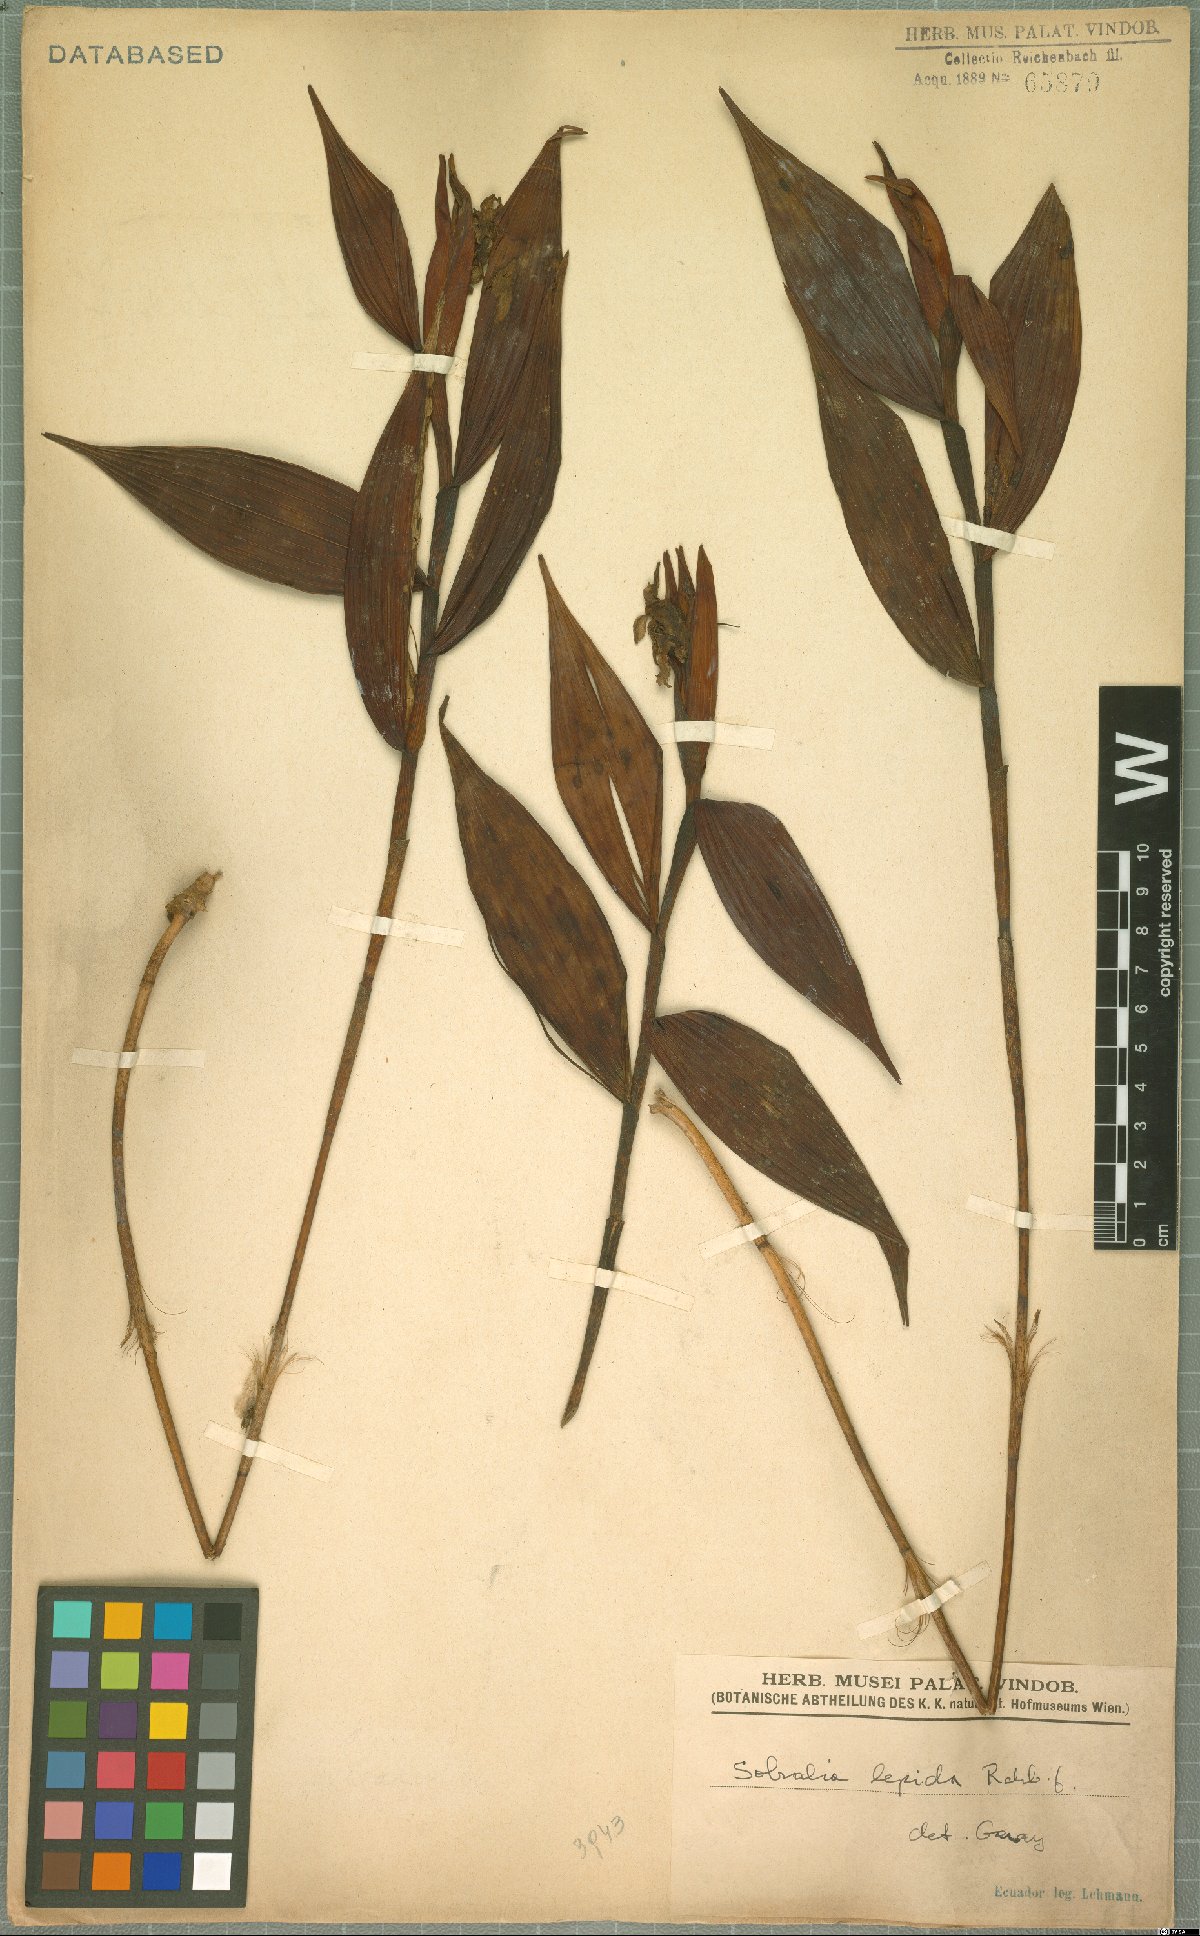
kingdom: Plantae
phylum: Tracheophyta
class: Liliopsida
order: Asparagales
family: Orchidaceae
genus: Sobralia
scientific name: Sobralia amabilis
